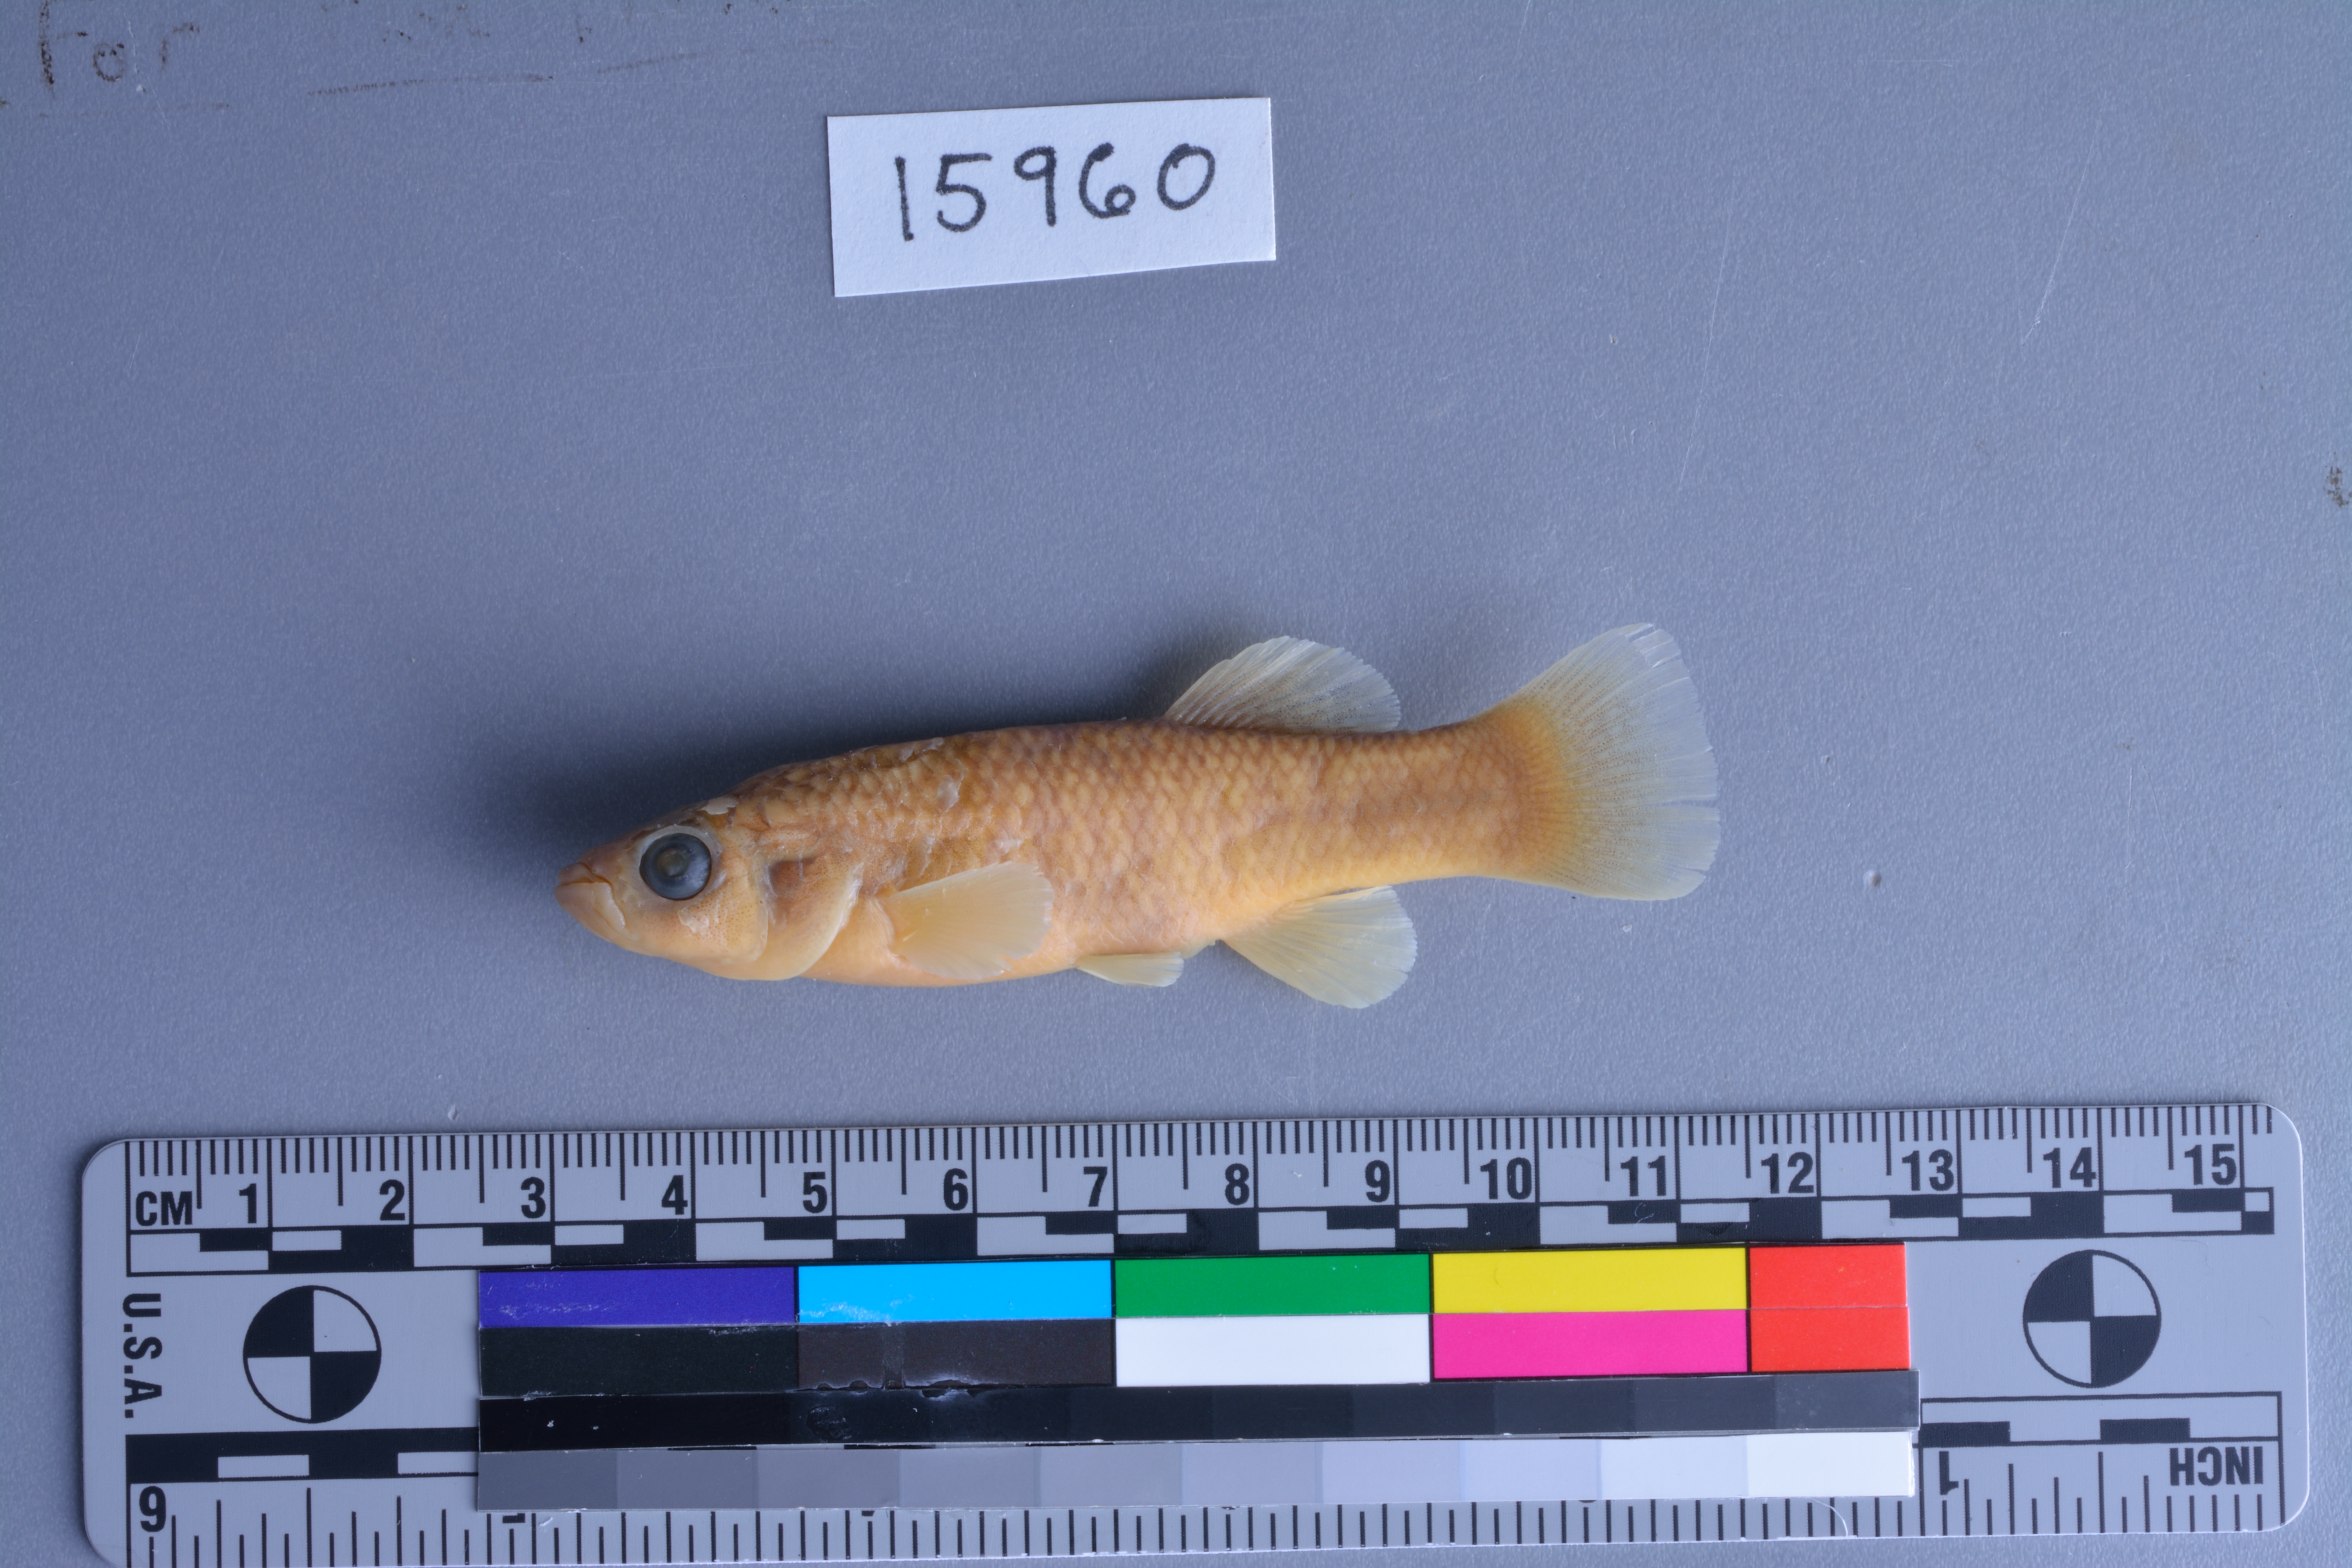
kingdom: Animalia
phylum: Chordata
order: Cyprinodontiformes
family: Fundulidae
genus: Fundulus
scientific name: Fundulus grandis
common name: Gulf killifish
